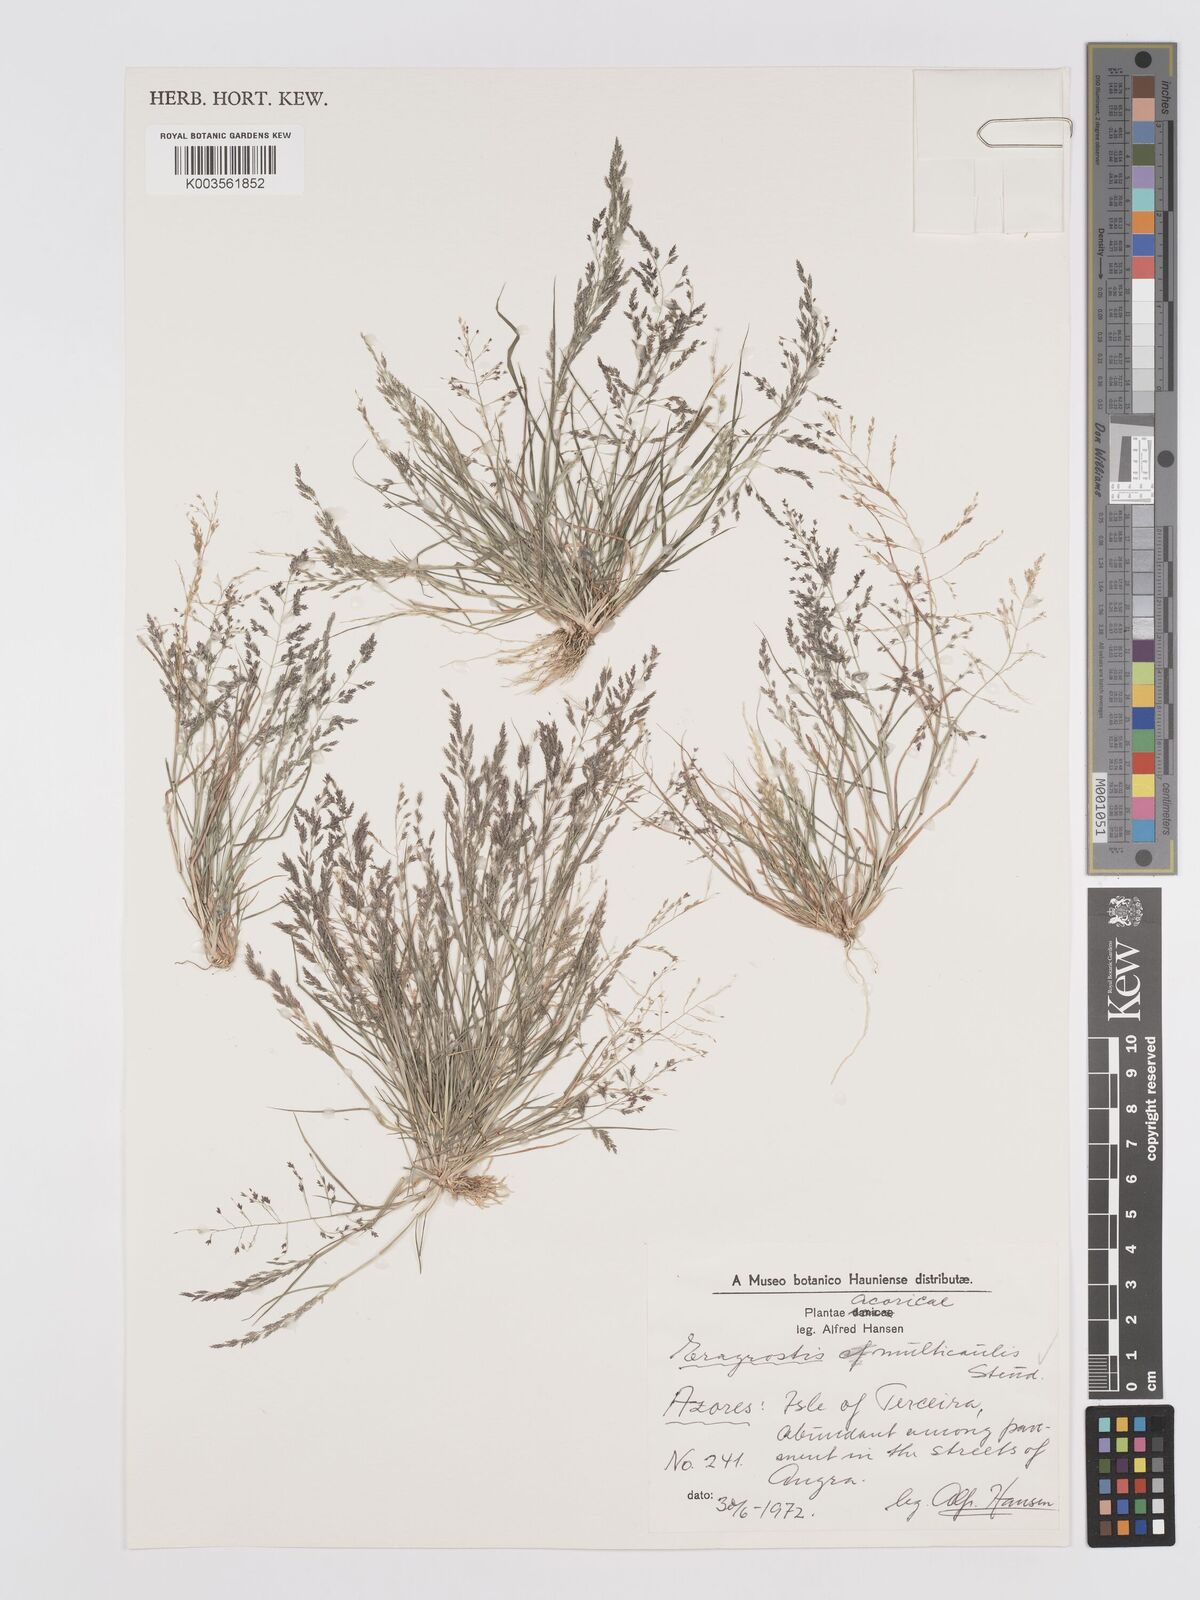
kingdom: Plantae
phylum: Tracheophyta
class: Liliopsida
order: Poales
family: Poaceae
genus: Eragrostis
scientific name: Eragrostis pilosa
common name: Indian lovegrass
